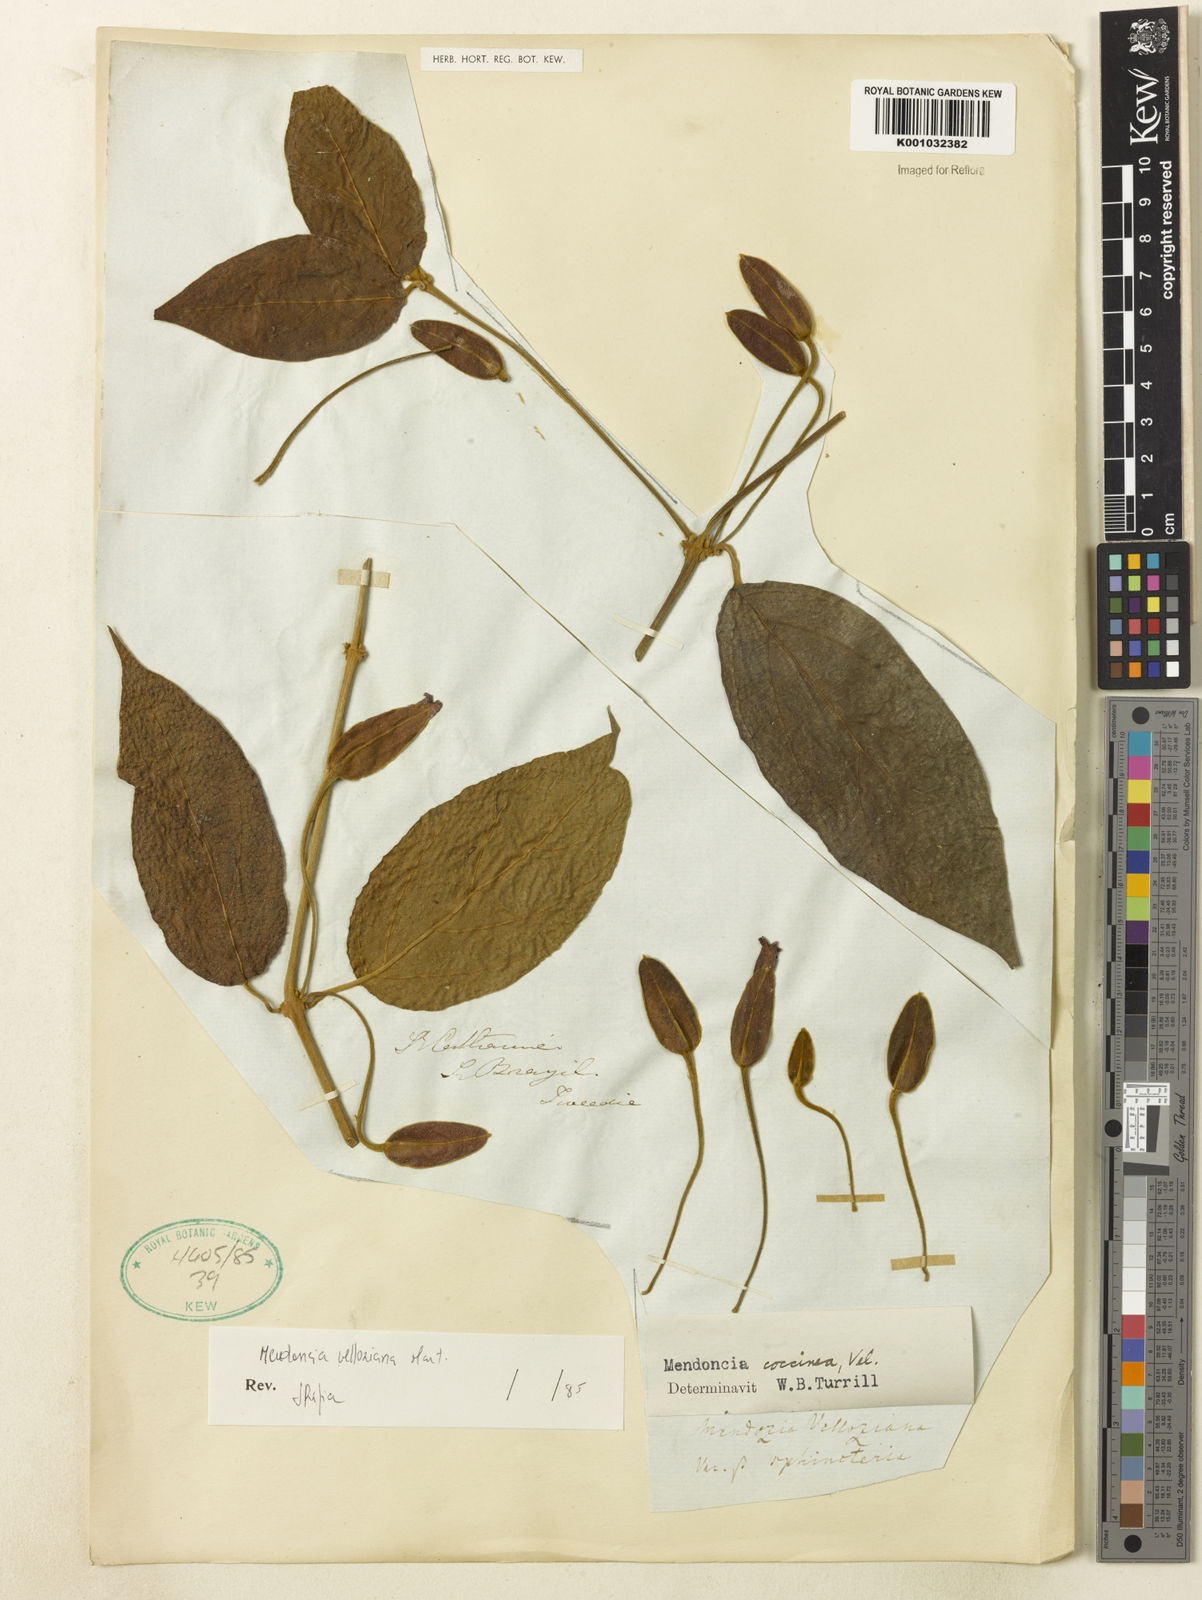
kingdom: Plantae
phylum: Tracheophyta
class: Magnoliopsida
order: Lamiales
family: Acanthaceae
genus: Mendoncia
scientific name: Mendoncia velloziana
